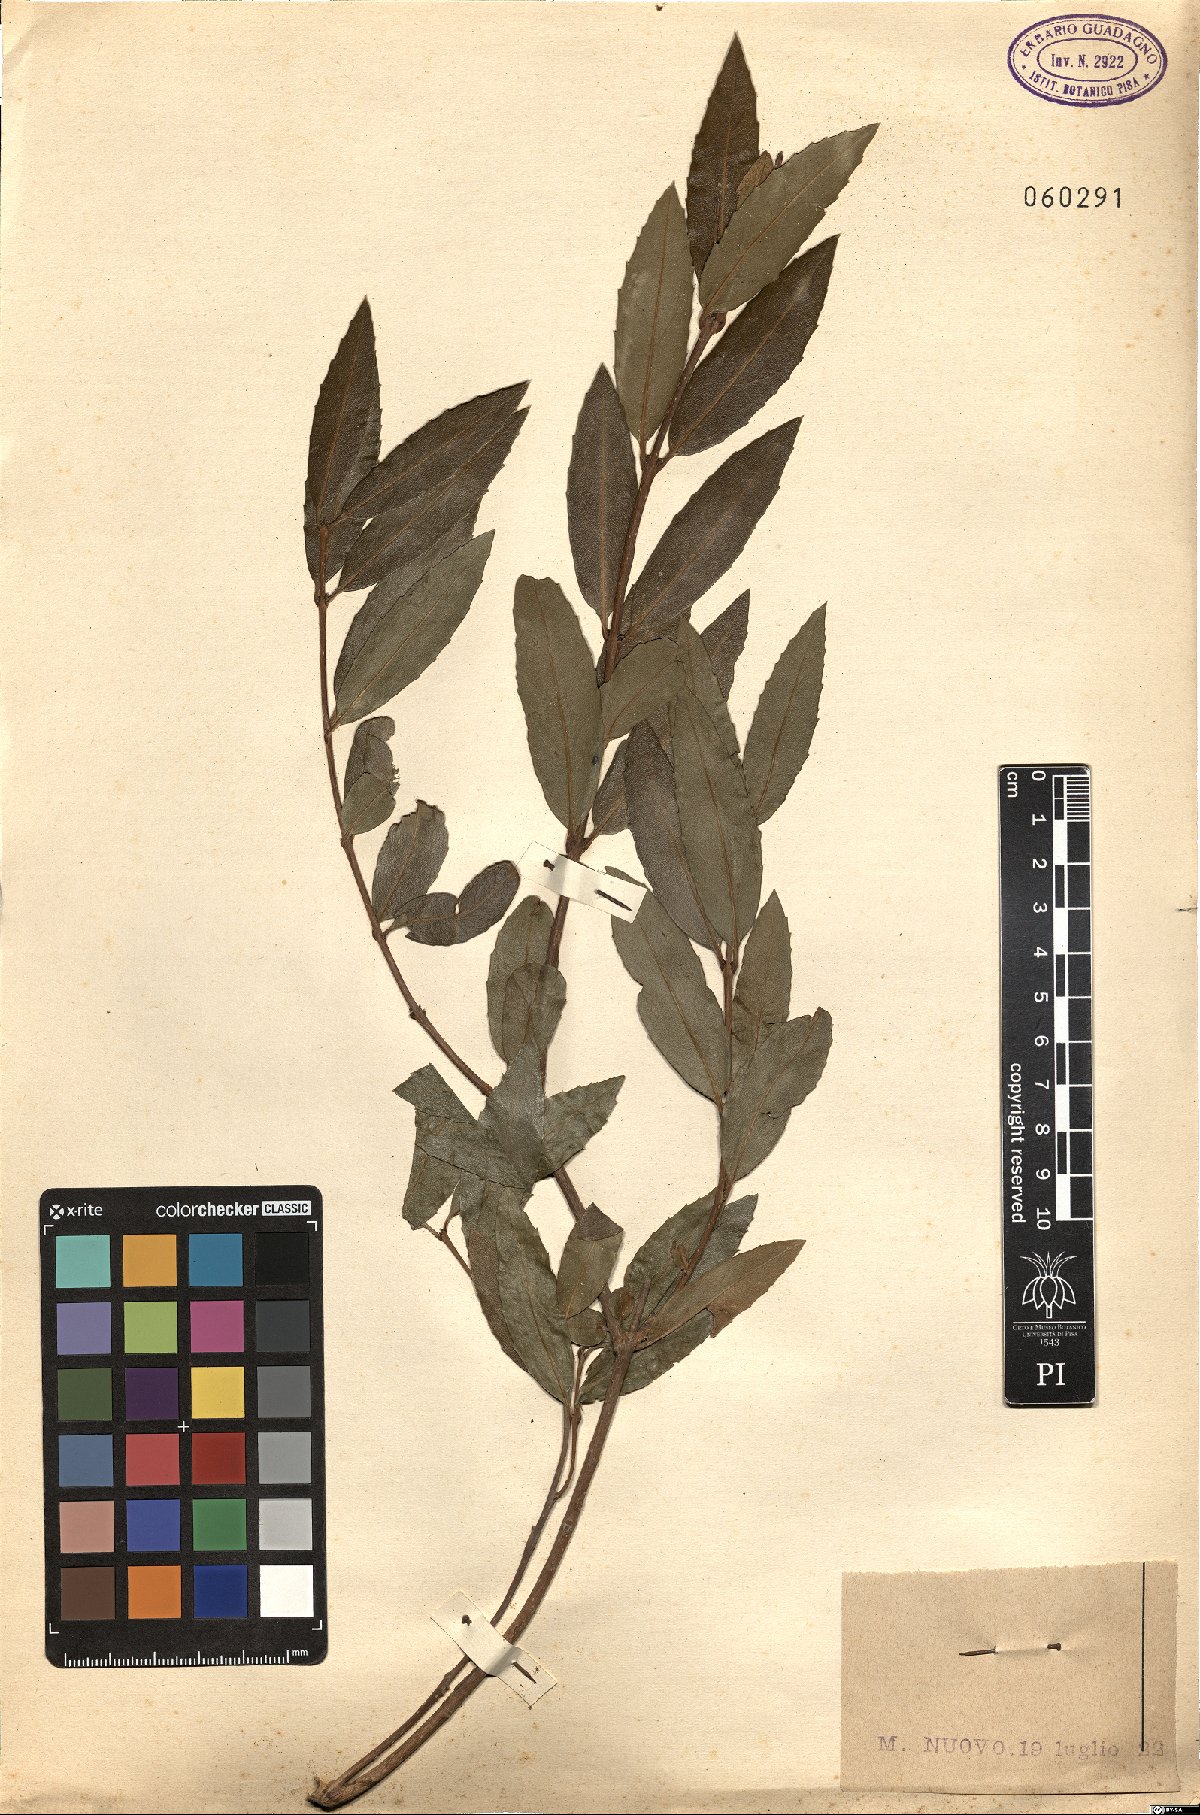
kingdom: Plantae
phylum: Tracheophyta
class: Magnoliopsida
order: Lamiales
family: Oleaceae
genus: Phillyrea
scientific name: Phillyrea latifolia
